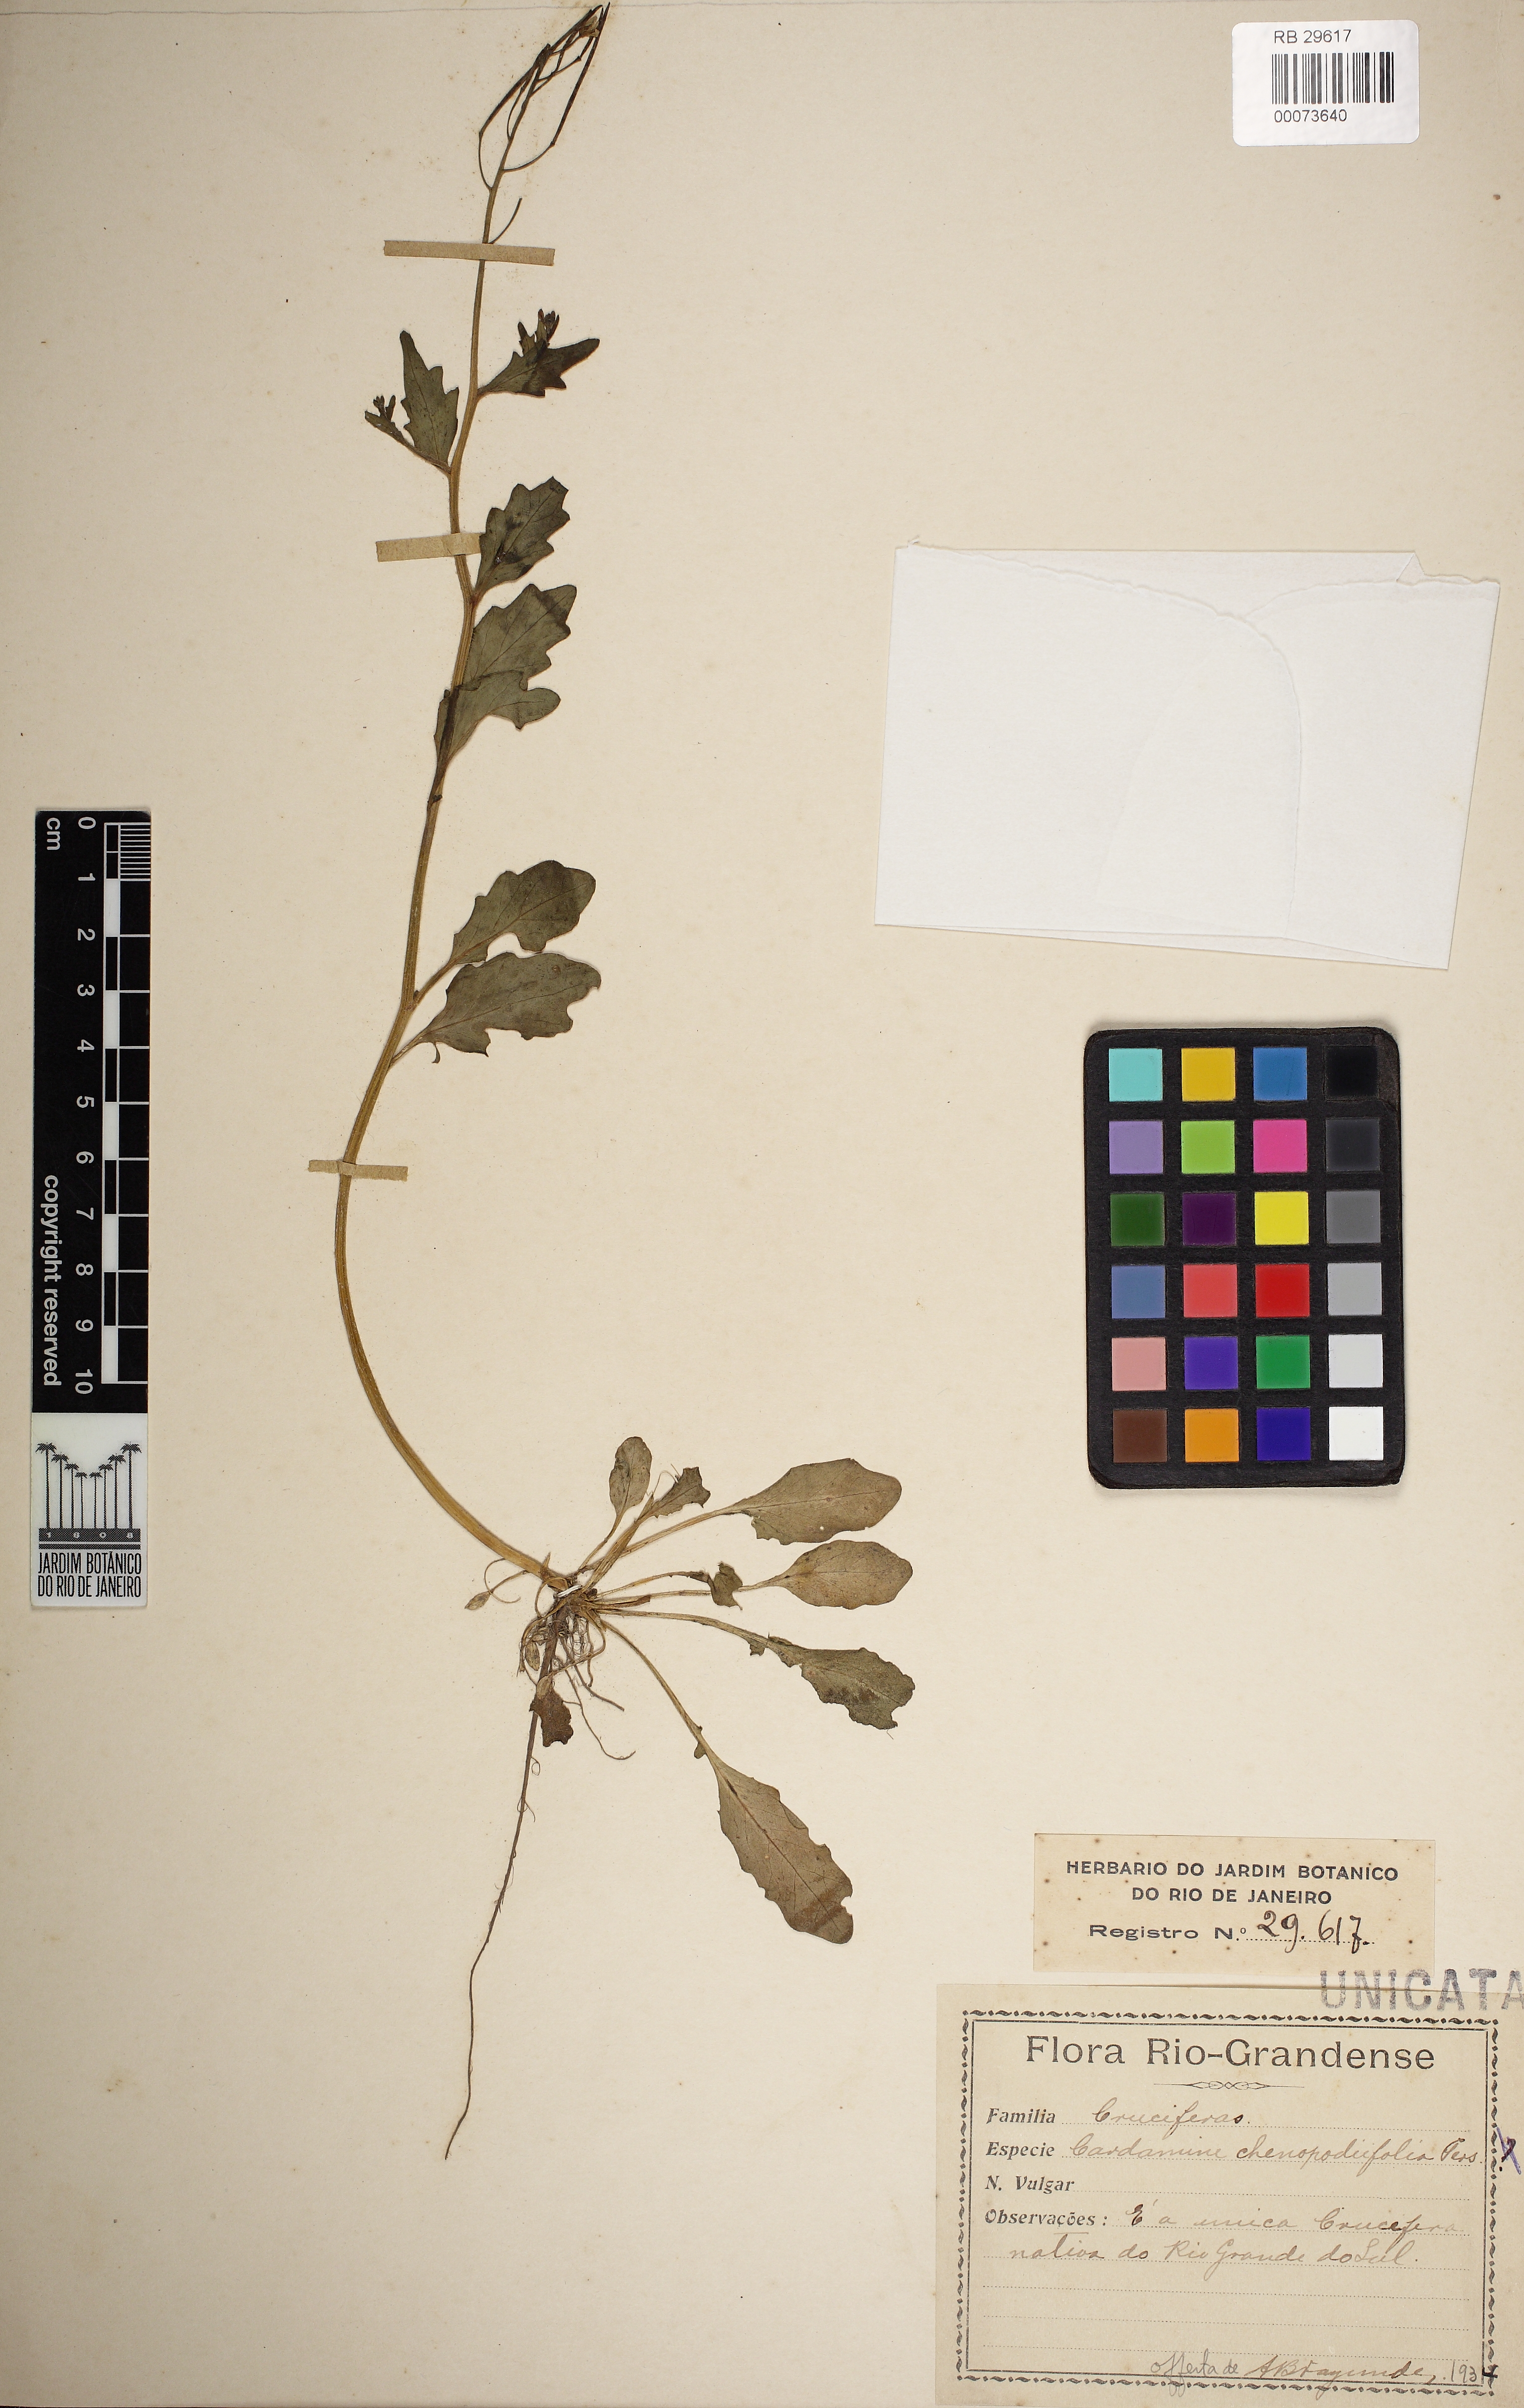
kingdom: Plantae
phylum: Tracheophyta
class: Magnoliopsida
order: Brassicales
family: Brassicaceae
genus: Cardamine
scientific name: Cardamine chenopodiifolia
